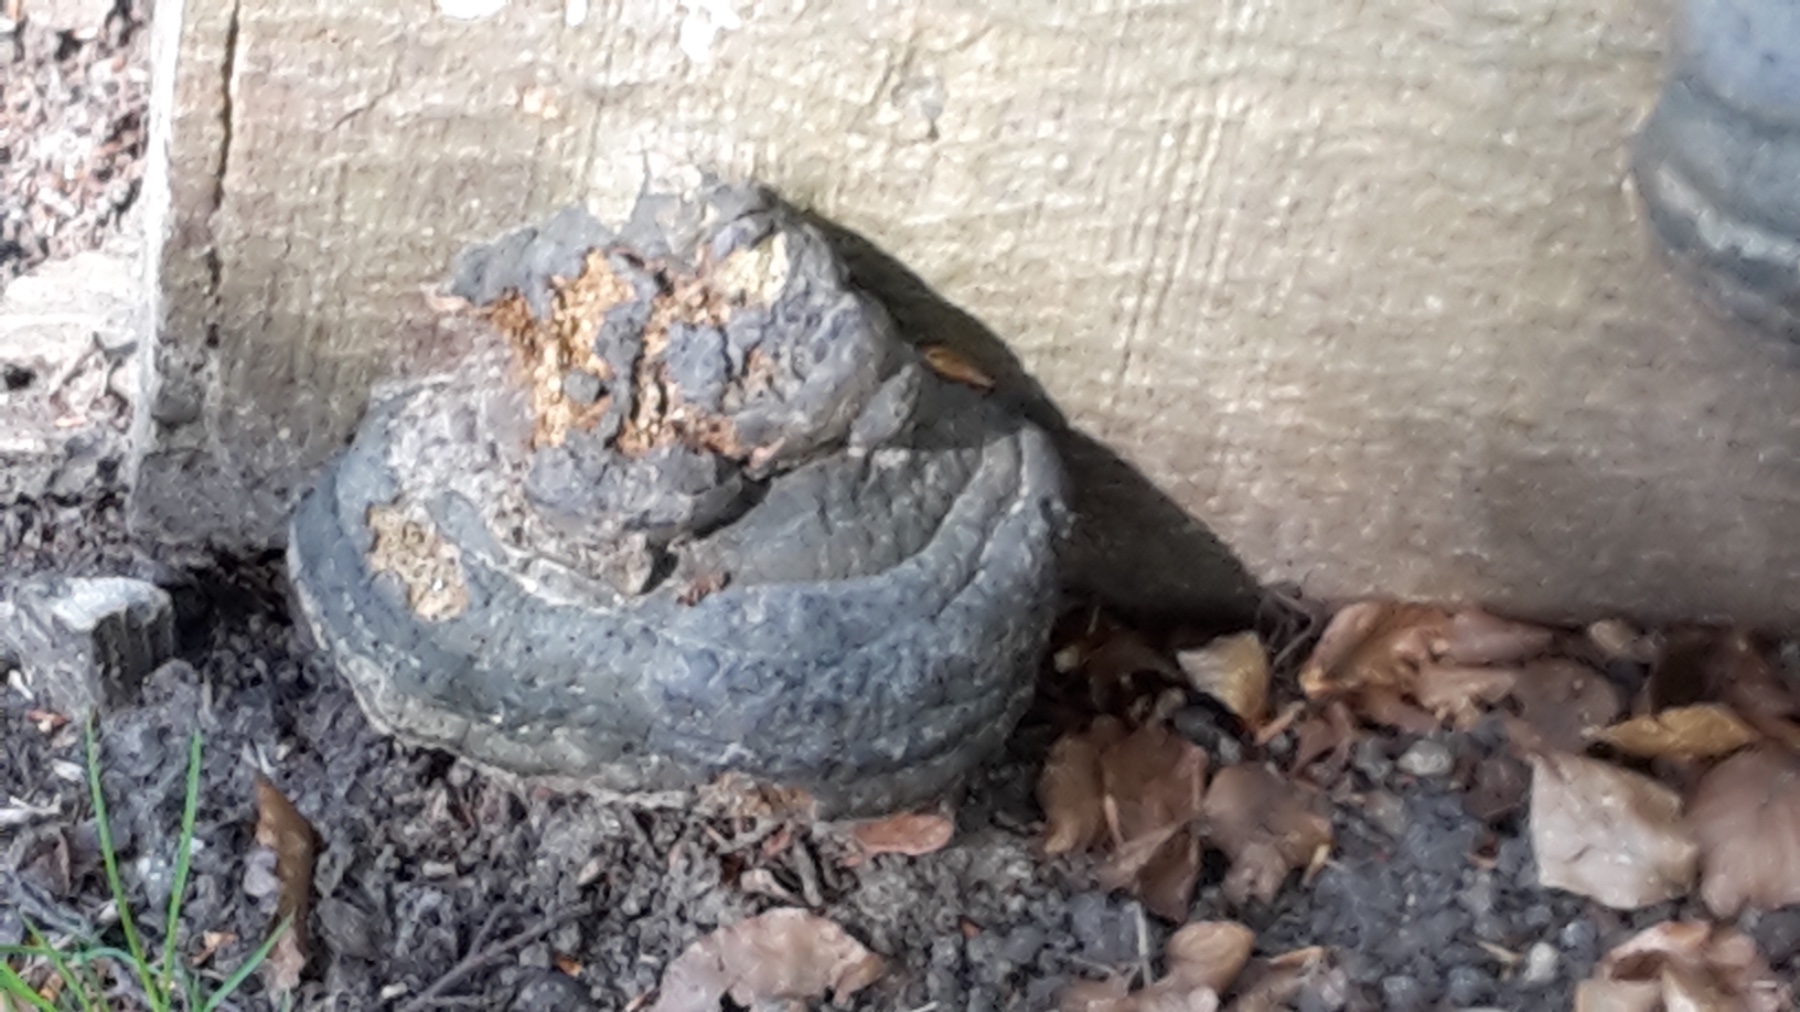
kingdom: Fungi
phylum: Basidiomycota
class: Agaricomycetes
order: Polyporales
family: Polyporaceae
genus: Fomes
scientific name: Fomes fomentarius
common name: tøndersvamp
